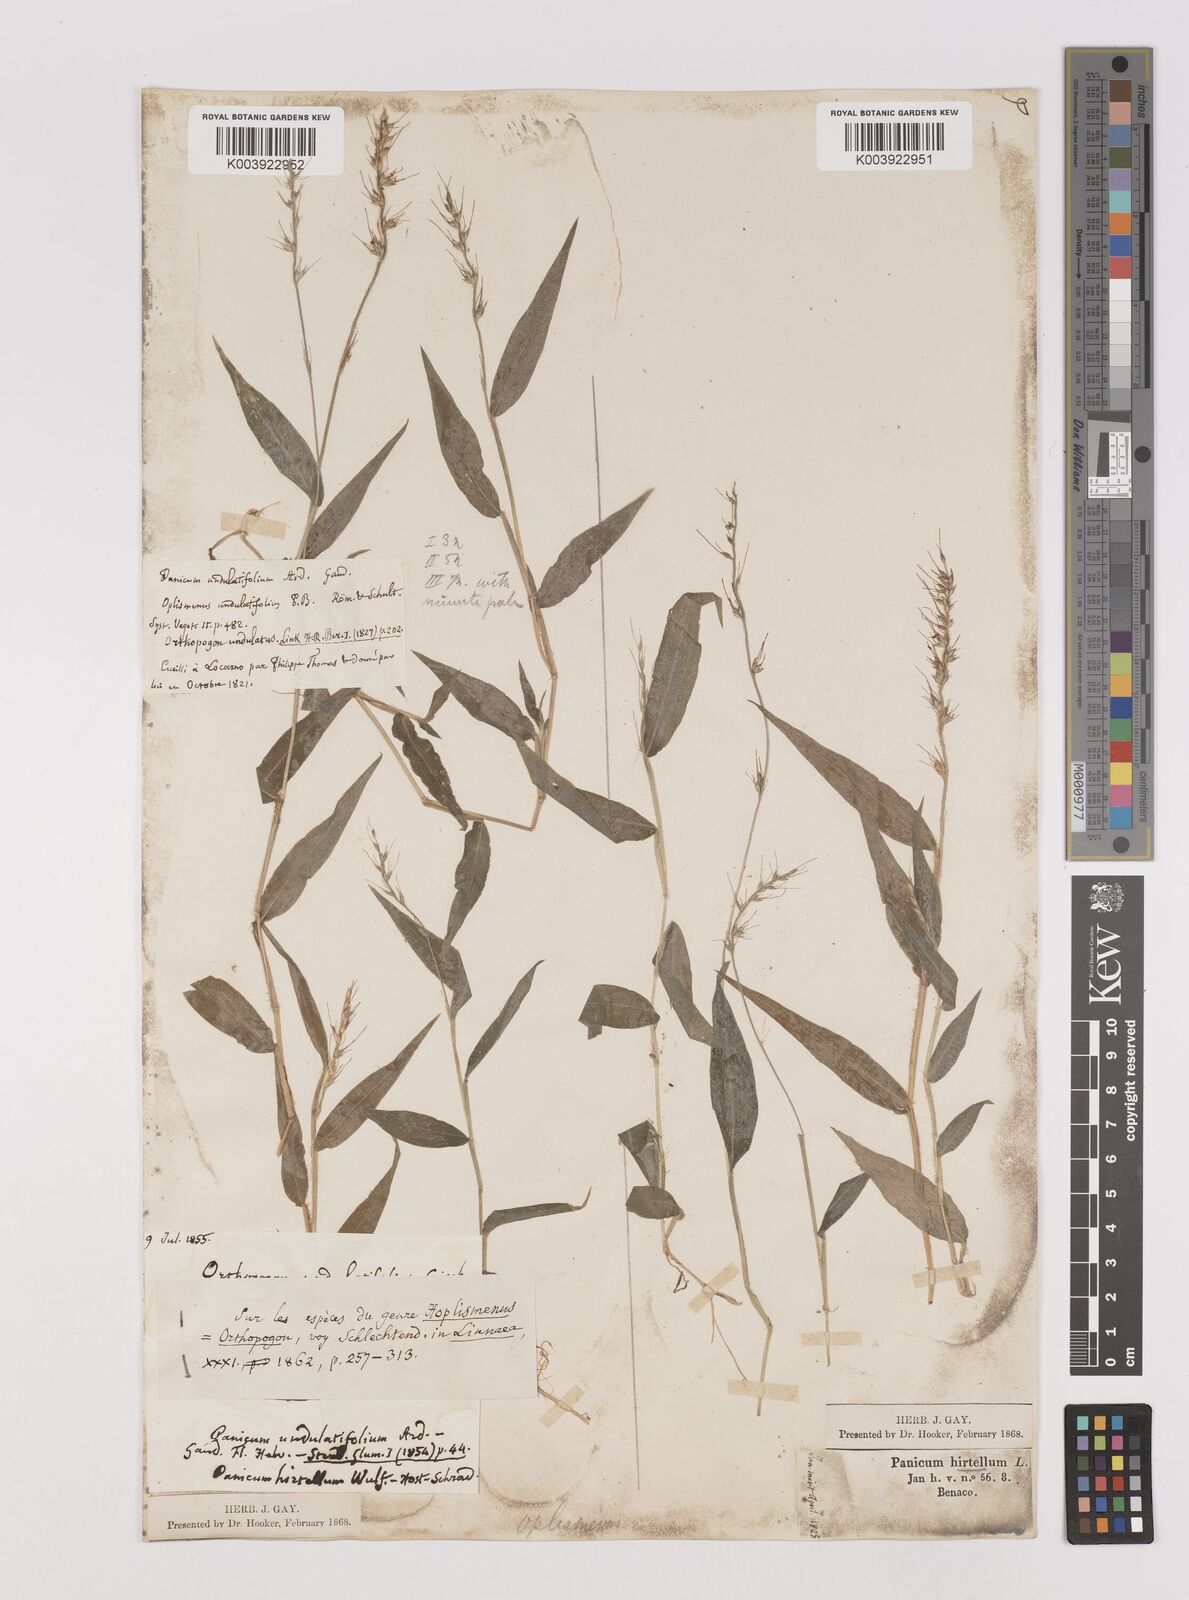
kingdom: Plantae
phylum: Tracheophyta
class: Liliopsida
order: Poales
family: Poaceae
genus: Oplismenus
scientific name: Oplismenus undulatifolius
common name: Wavyleaf basketgrass
